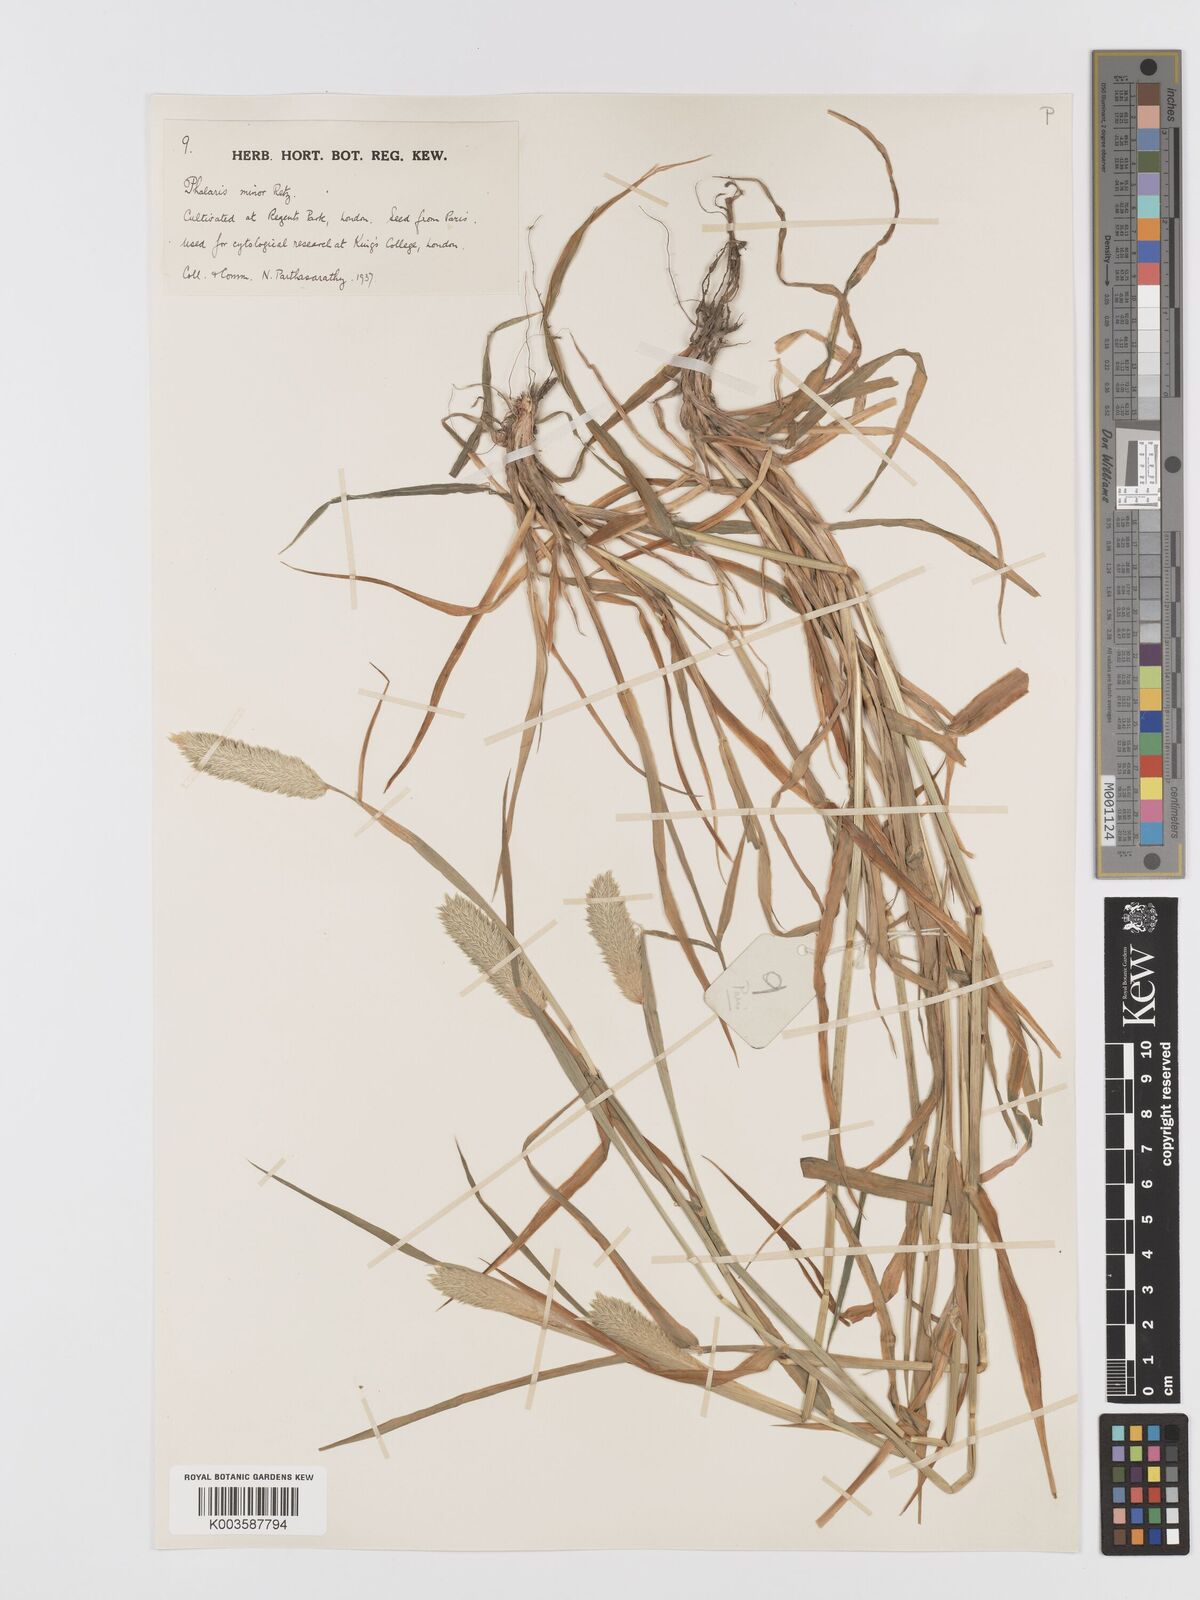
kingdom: Plantae
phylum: Tracheophyta
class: Liliopsida
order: Poales
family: Poaceae
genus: Phalaris
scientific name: Phalaris minor
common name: Littleseed canarygrass
